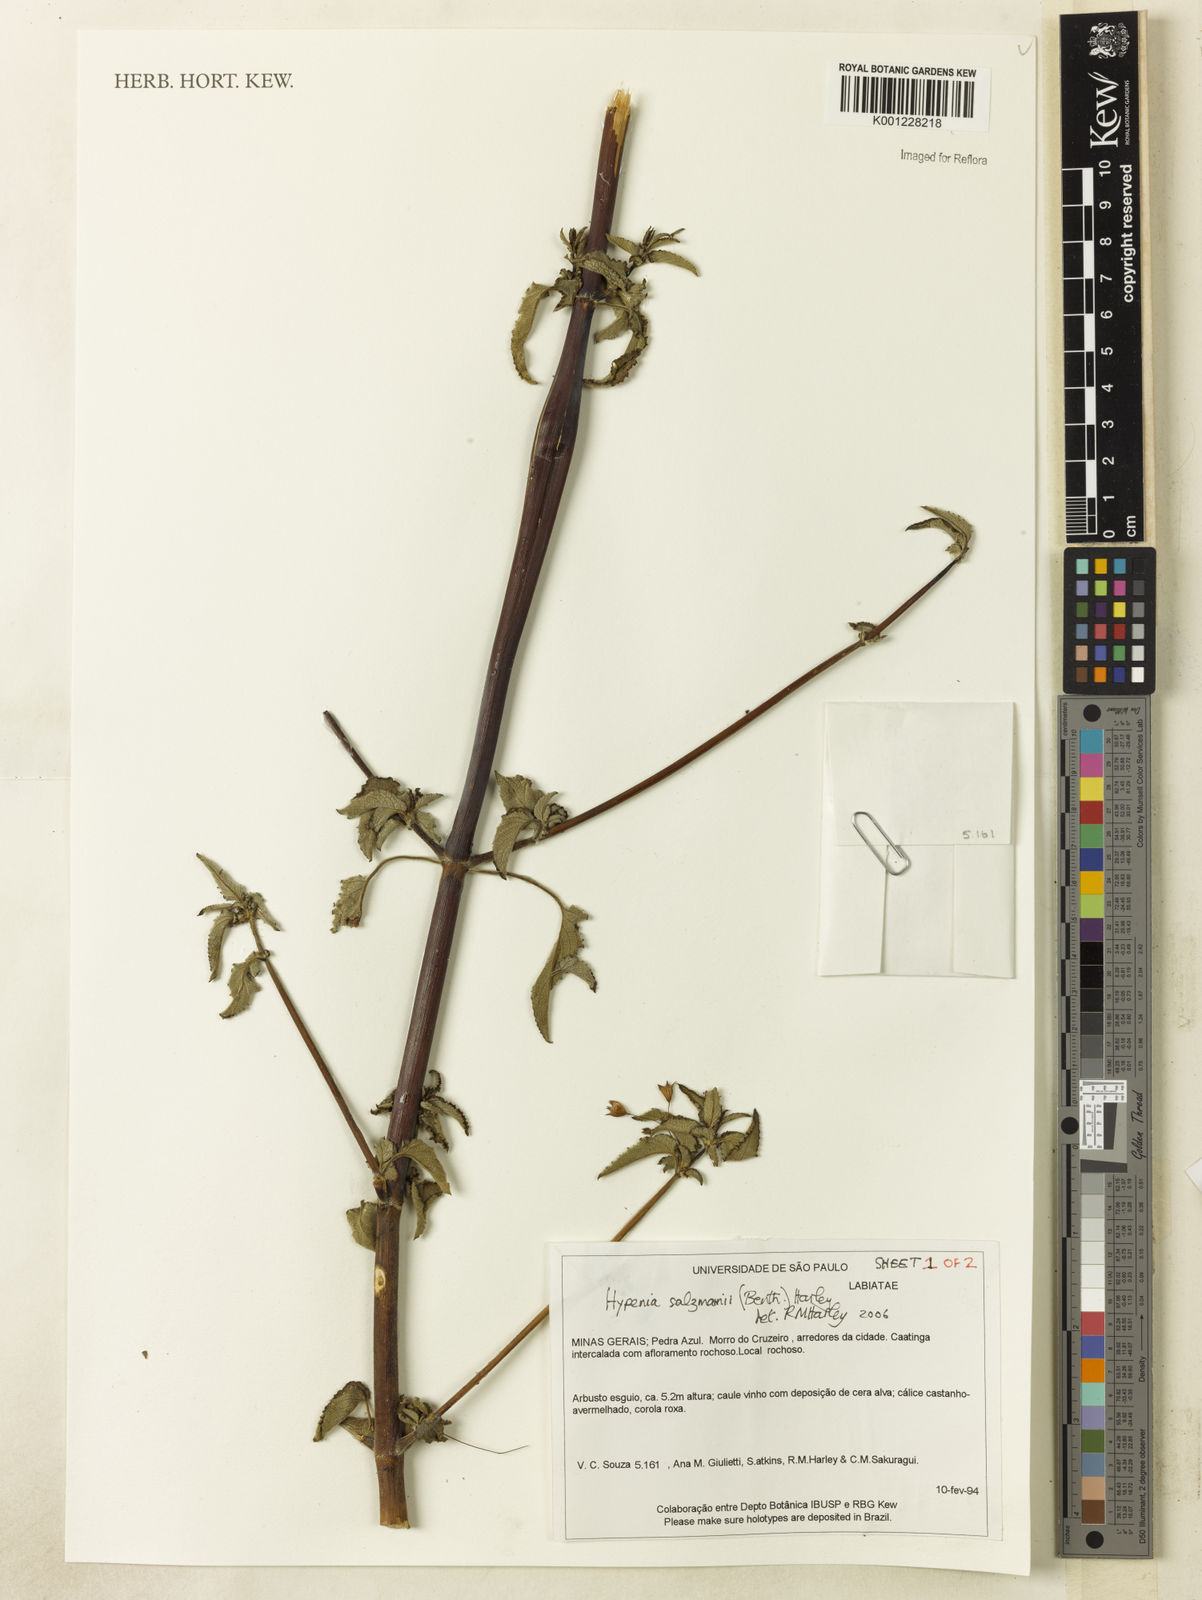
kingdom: Plantae
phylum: Tracheophyta
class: Magnoliopsida
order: Lamiales
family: Lamiaceae
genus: Hypenia
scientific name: Hypenia salzmannii
